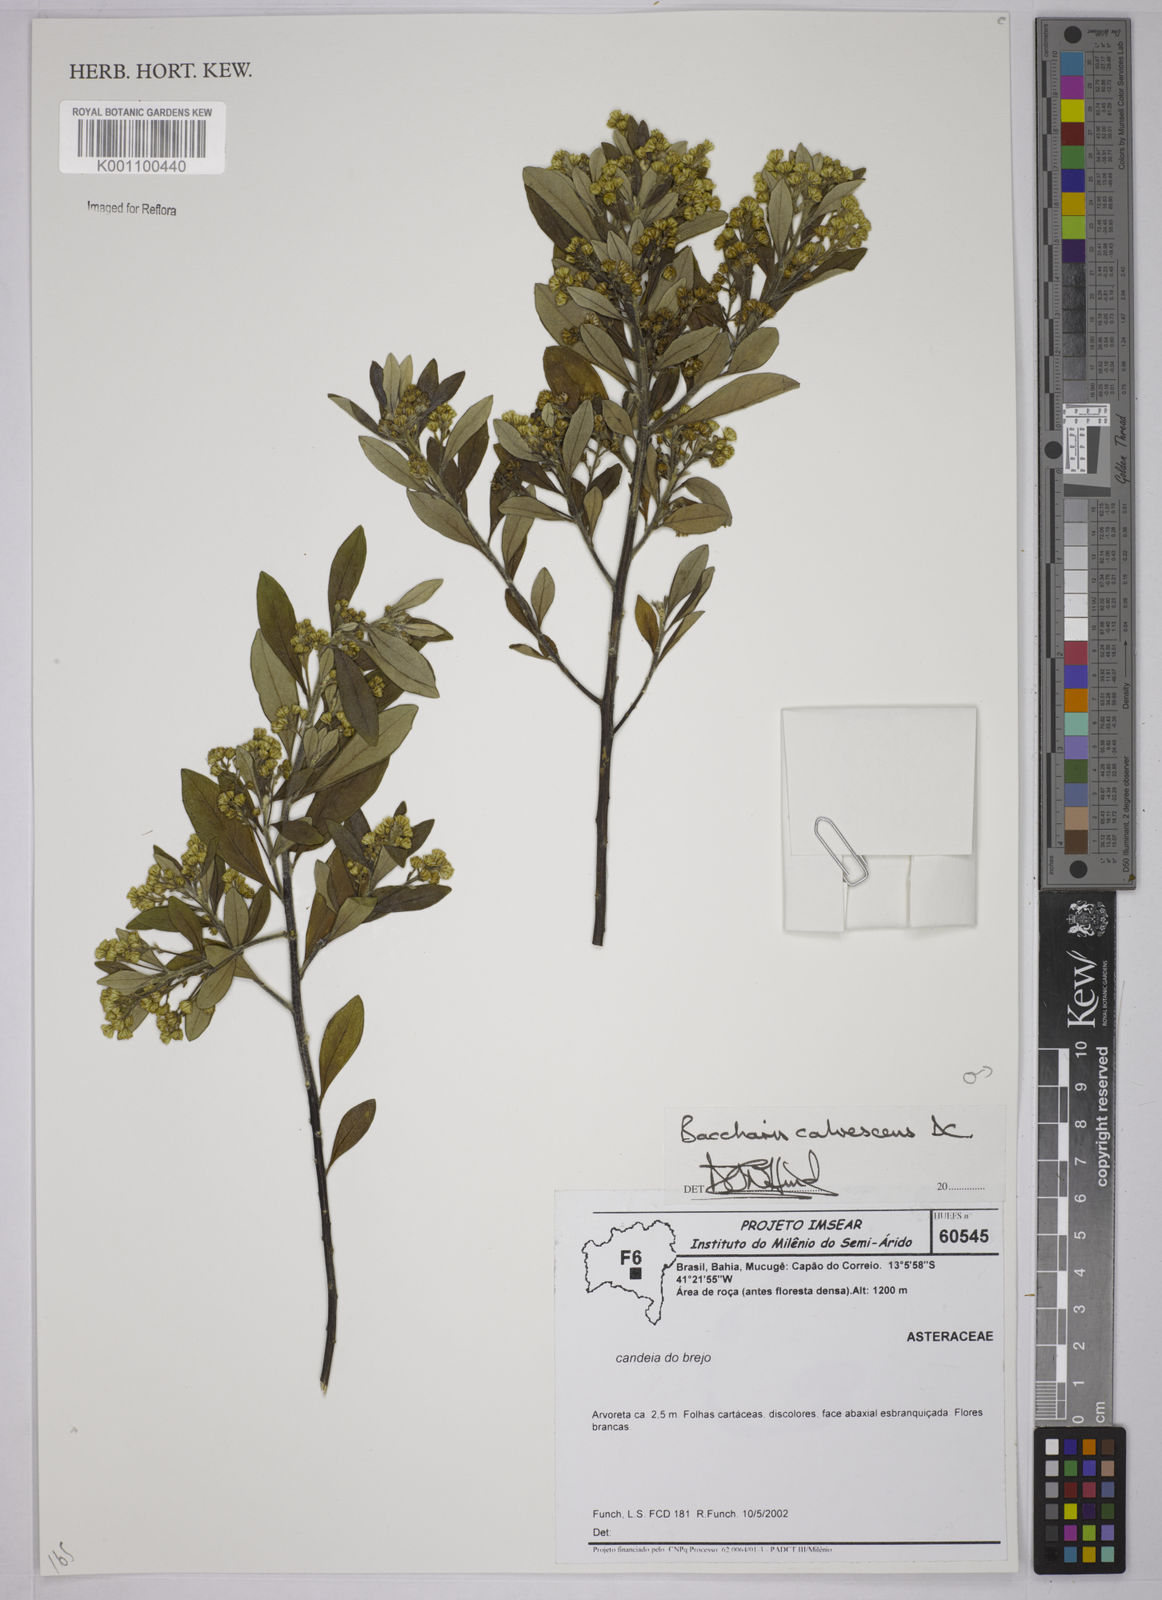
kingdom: Plantae
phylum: Tracheophyta
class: Magnoliopsida
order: Asterales
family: Asteraceae
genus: Baccharis
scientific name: Baccharis calvescens
